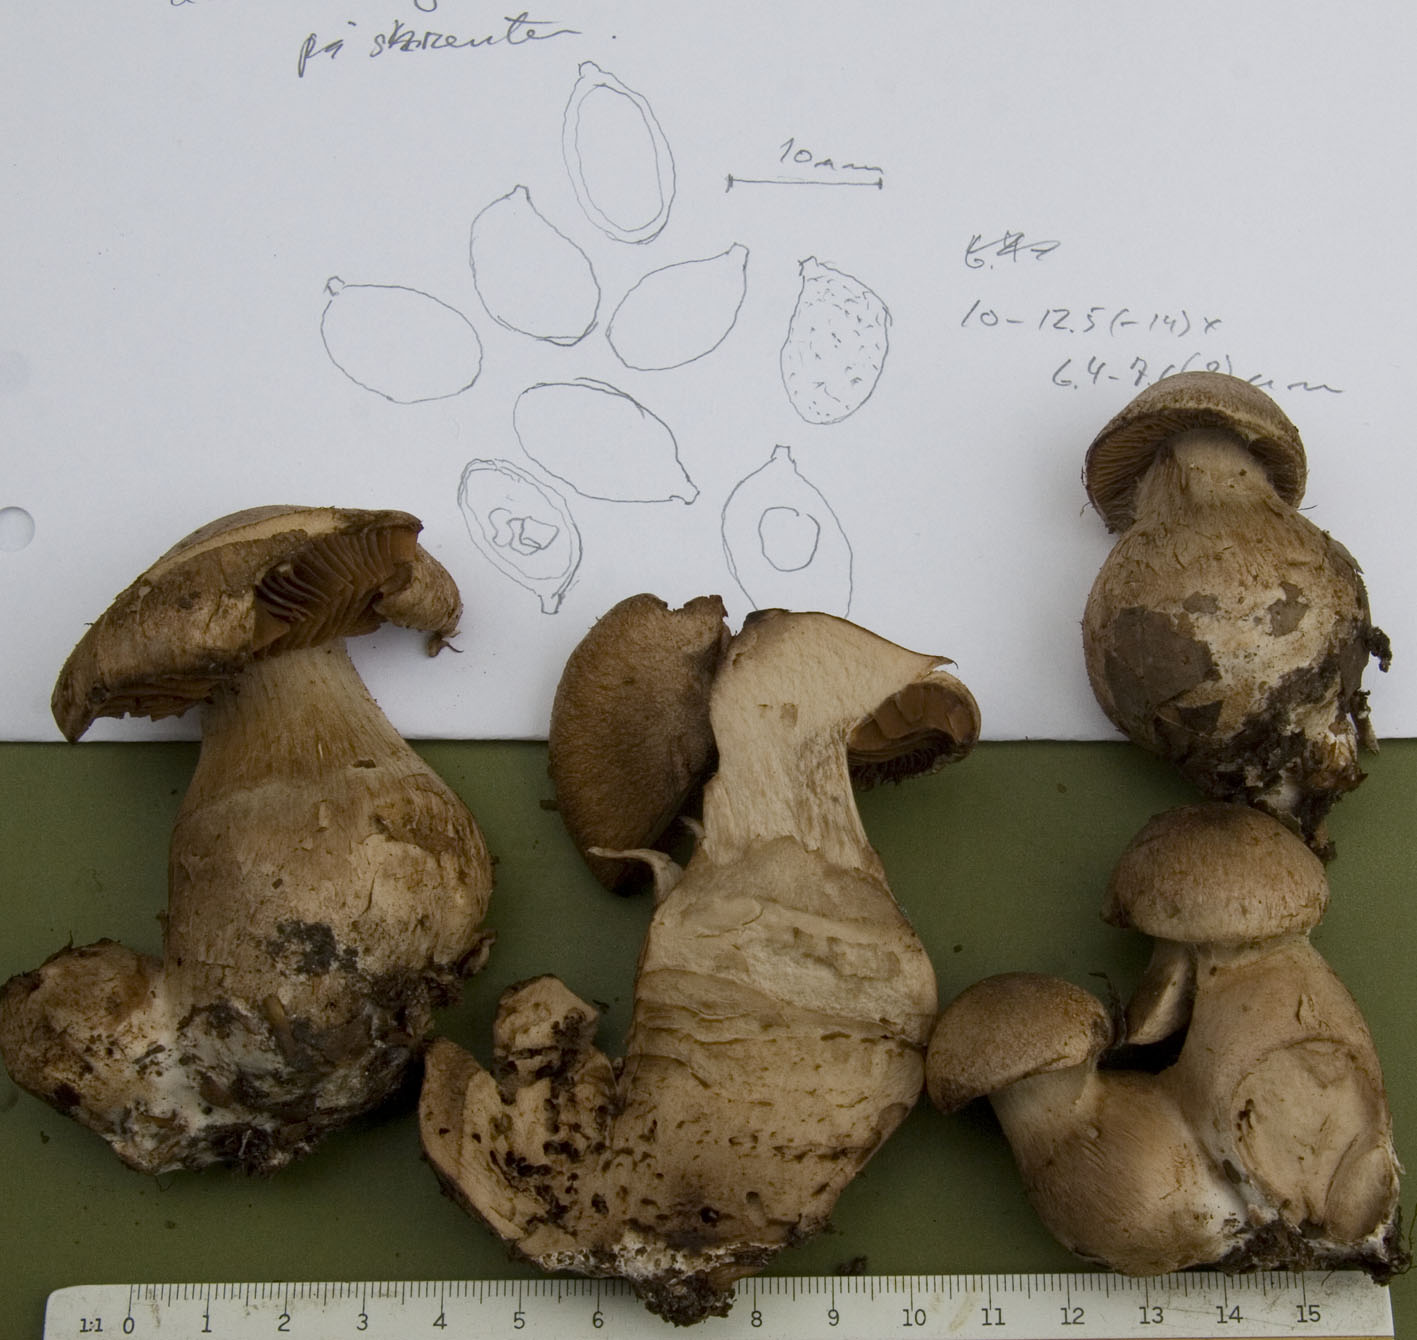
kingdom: Fungi
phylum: Basidiomycota
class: Agaricomycetes
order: Agaricales
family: Cortinariaceae
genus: Cortinarius
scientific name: Cortinarius sociatus
